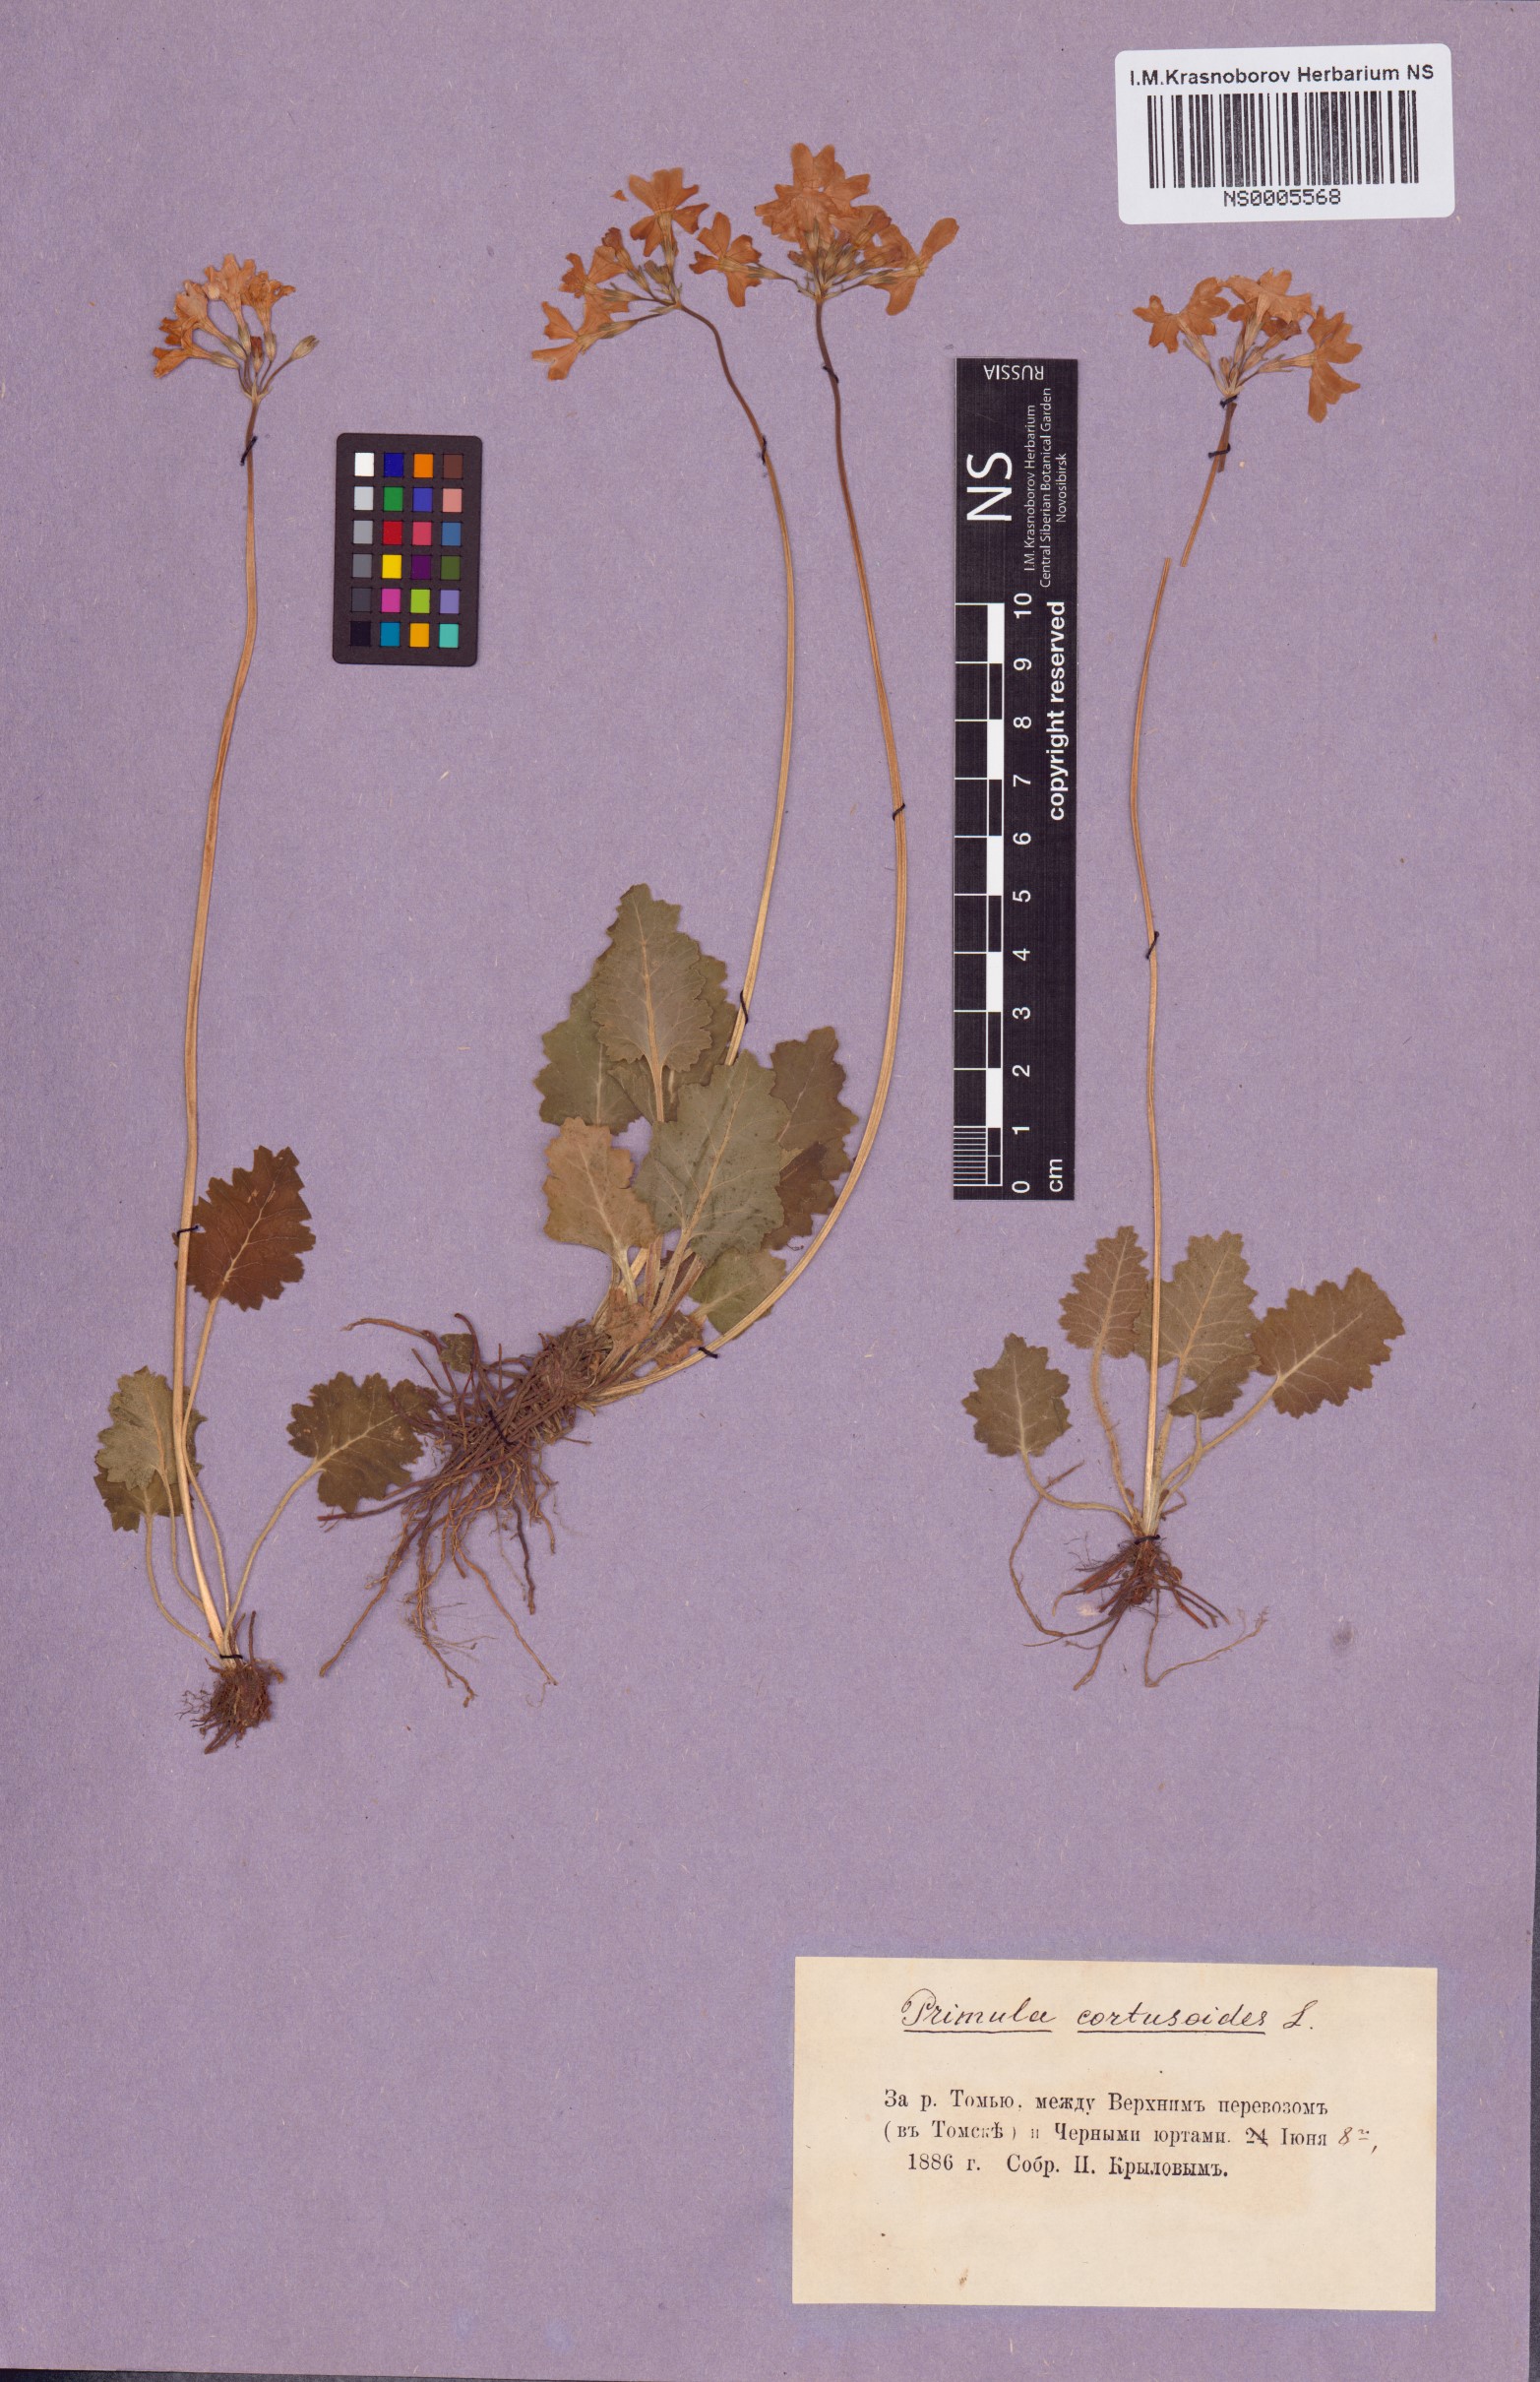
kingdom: Plantae
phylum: Tracheophyta
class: Magnoliopsida
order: Ericales
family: Primulaceae
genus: Primula
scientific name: Primula cortusoides
